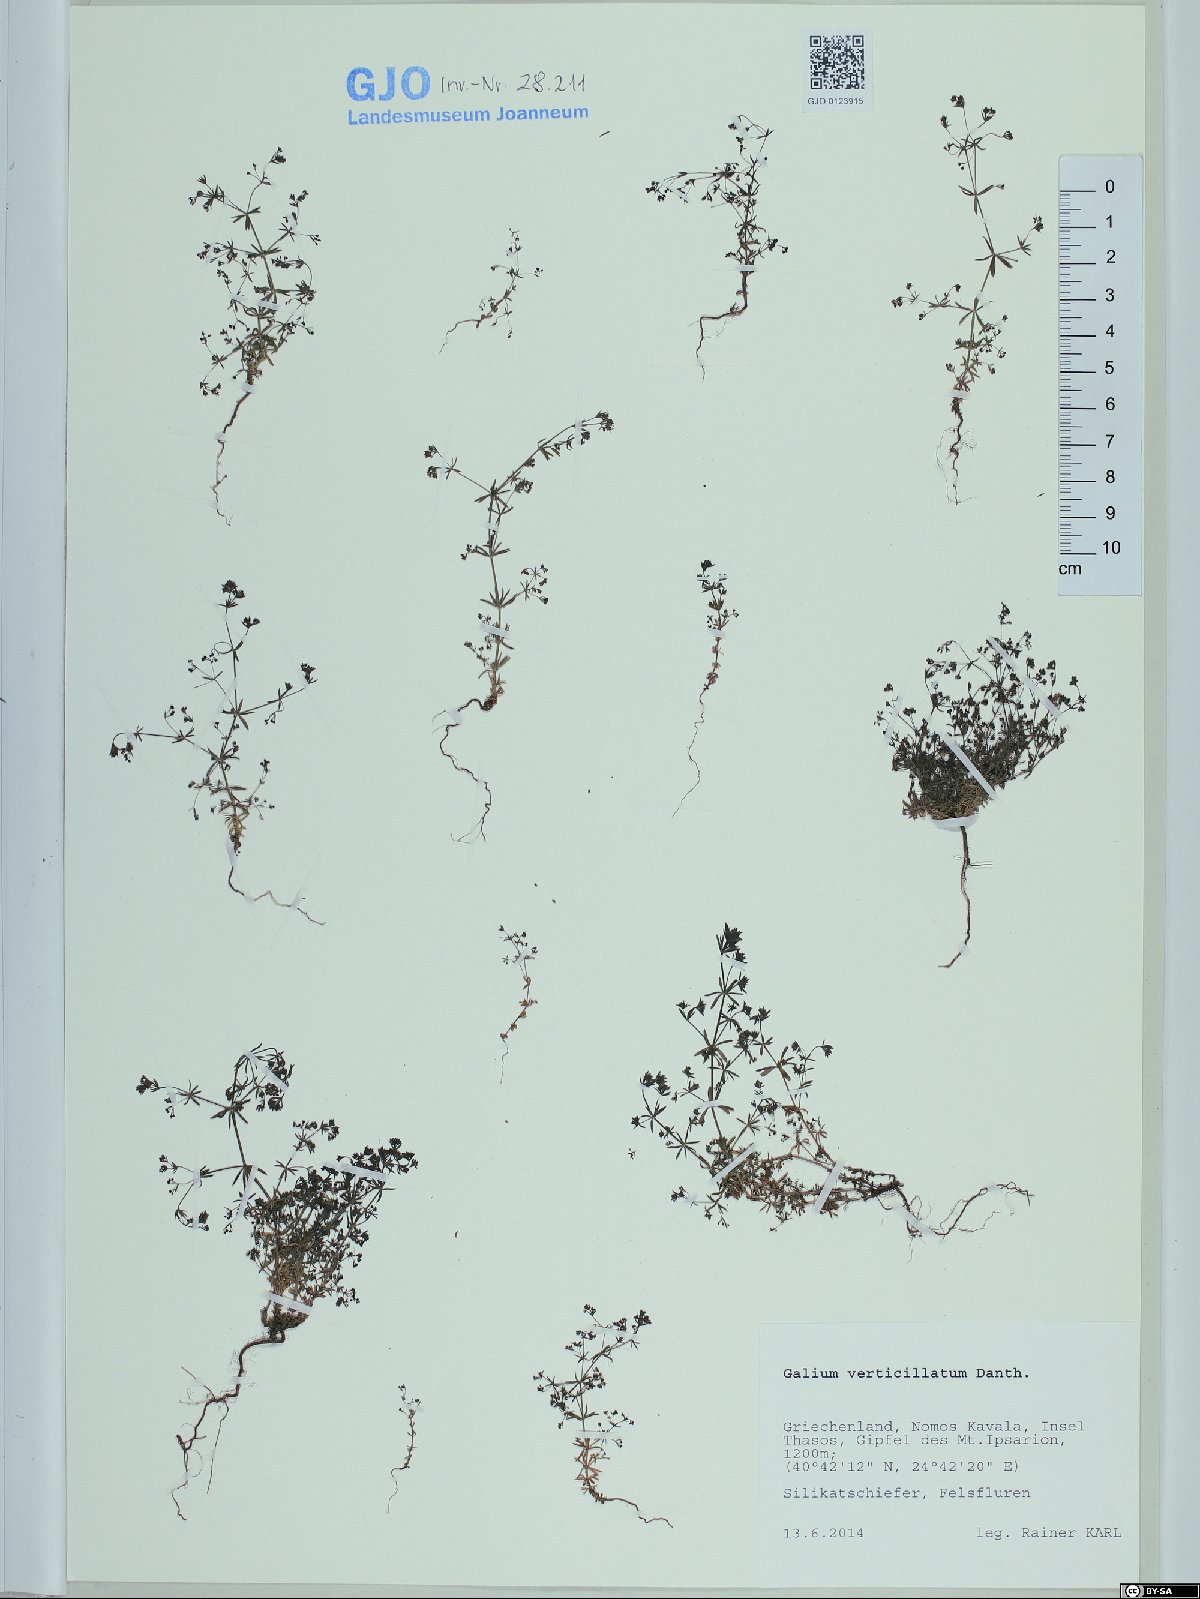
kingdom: Plantae
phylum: Tracheophyta
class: Magnoliopsida
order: Gentianales
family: Rubiaceae
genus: Galium
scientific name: Galium verticillatum
